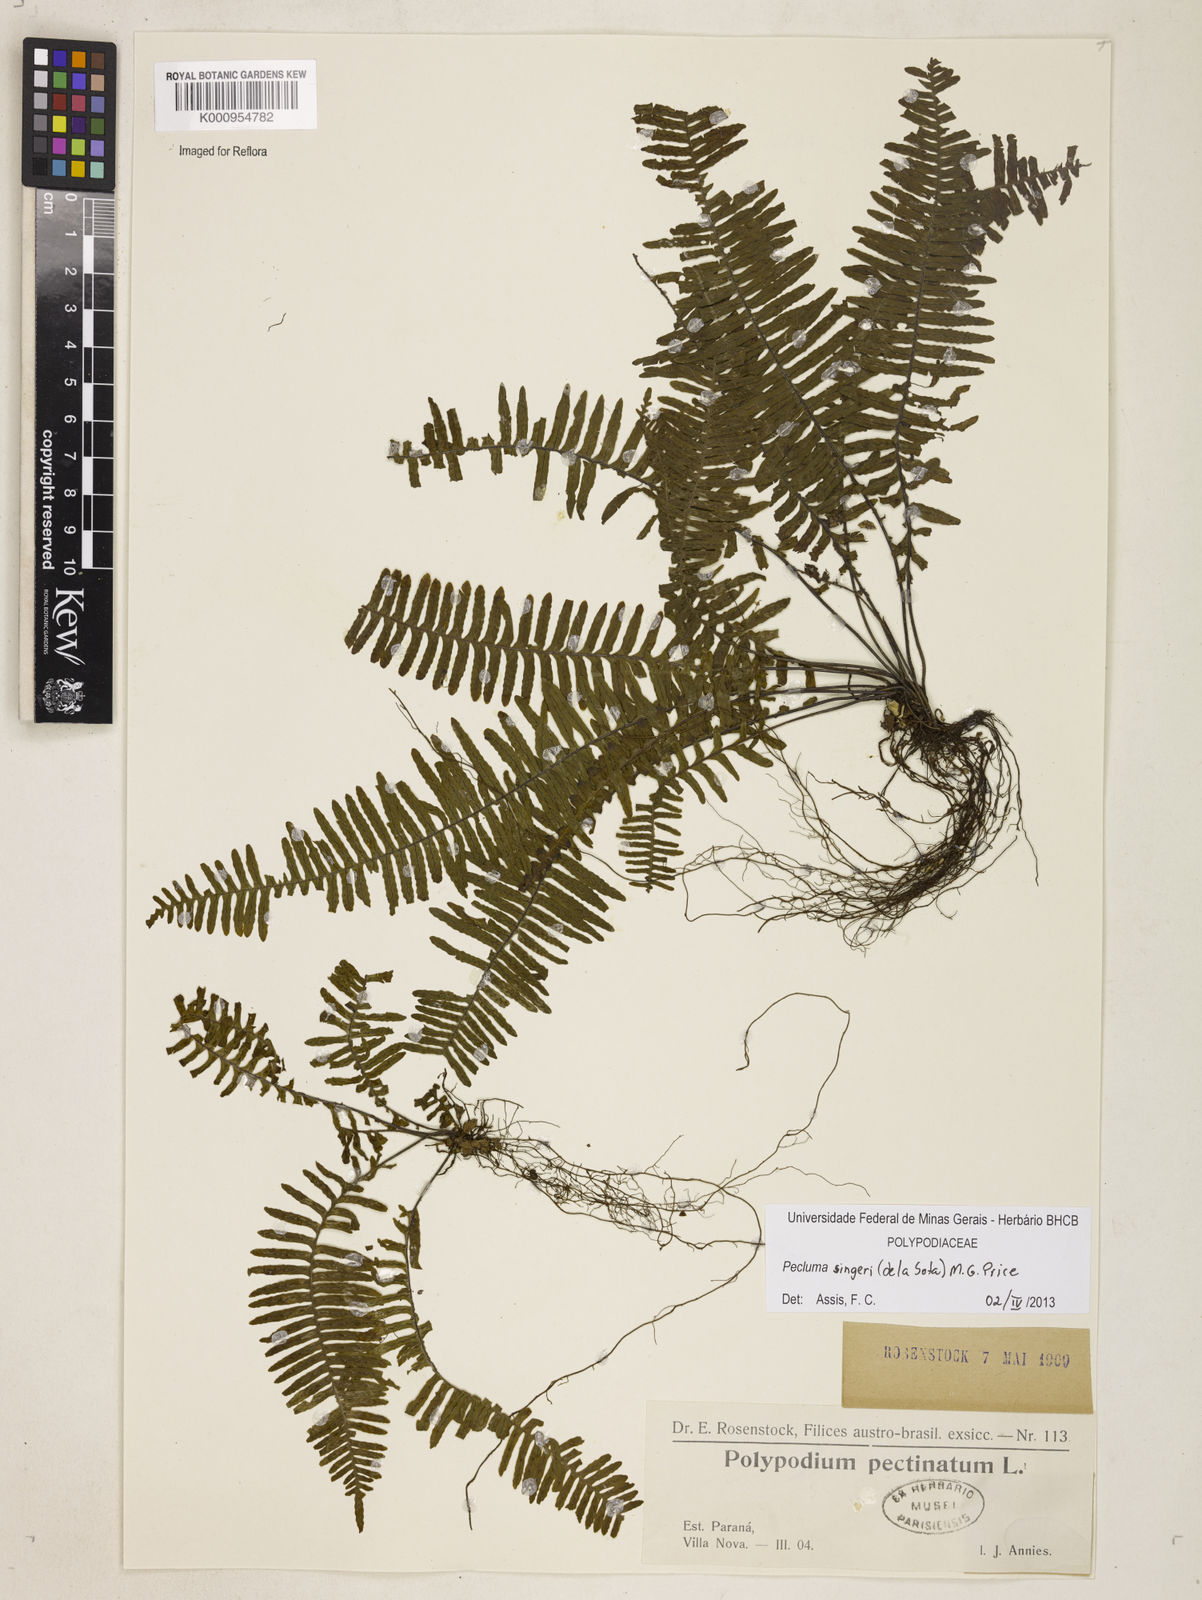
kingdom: Plantae
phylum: Tracheophyta
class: Polypodiopsida
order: Polypodiales
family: Polypodiaceae
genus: Pecluma
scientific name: Pecluma singeri
